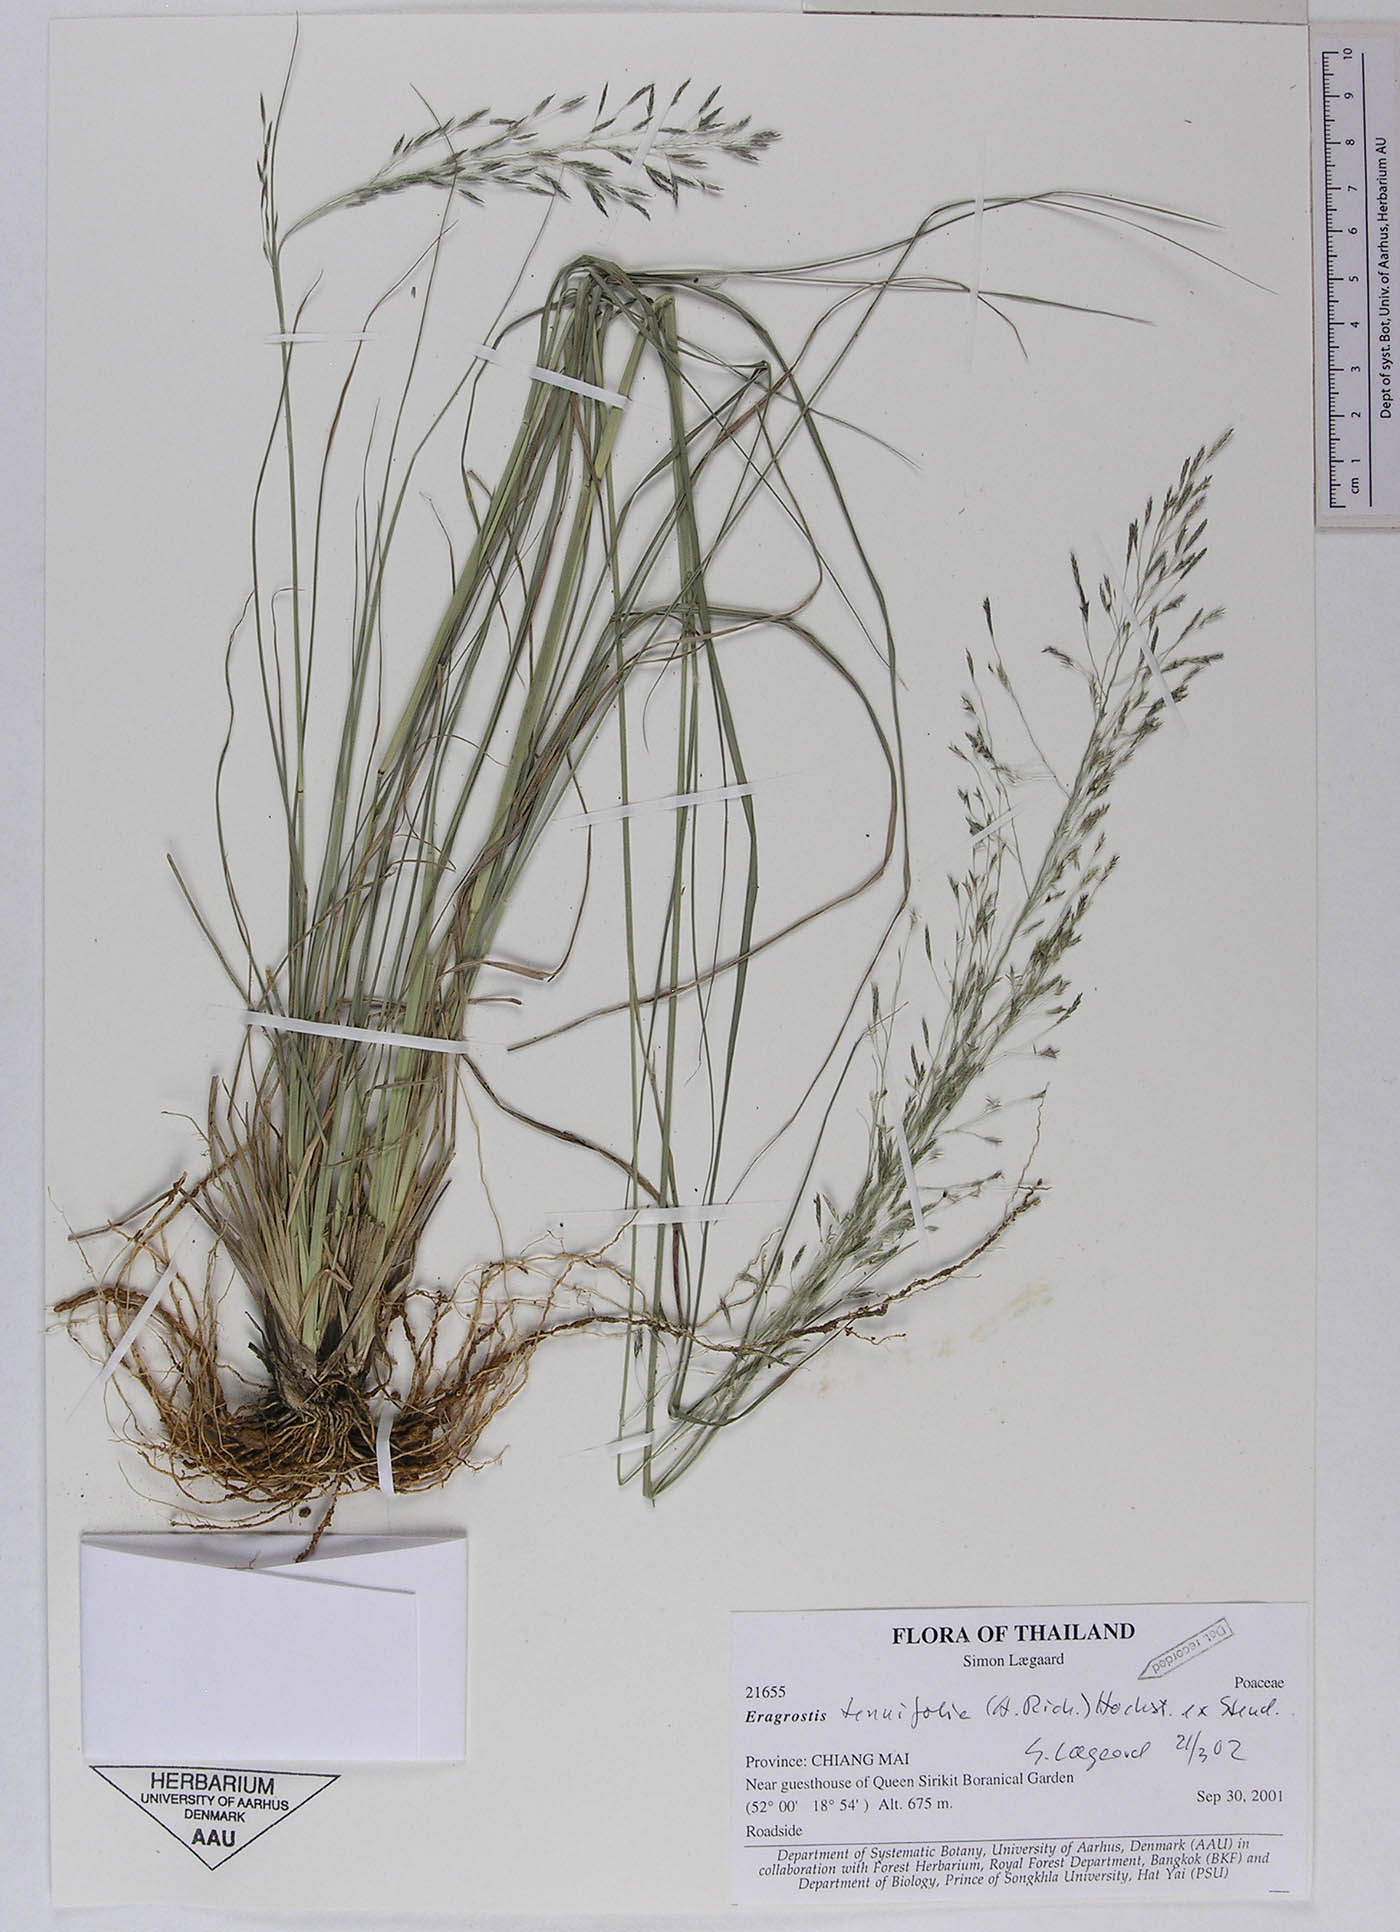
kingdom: Plantae
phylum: Tracheophyta
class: Liliopsida
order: Poales
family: Poaceae
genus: Eragrostis
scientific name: Eragrostis tenuifolia
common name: Elastic grass
